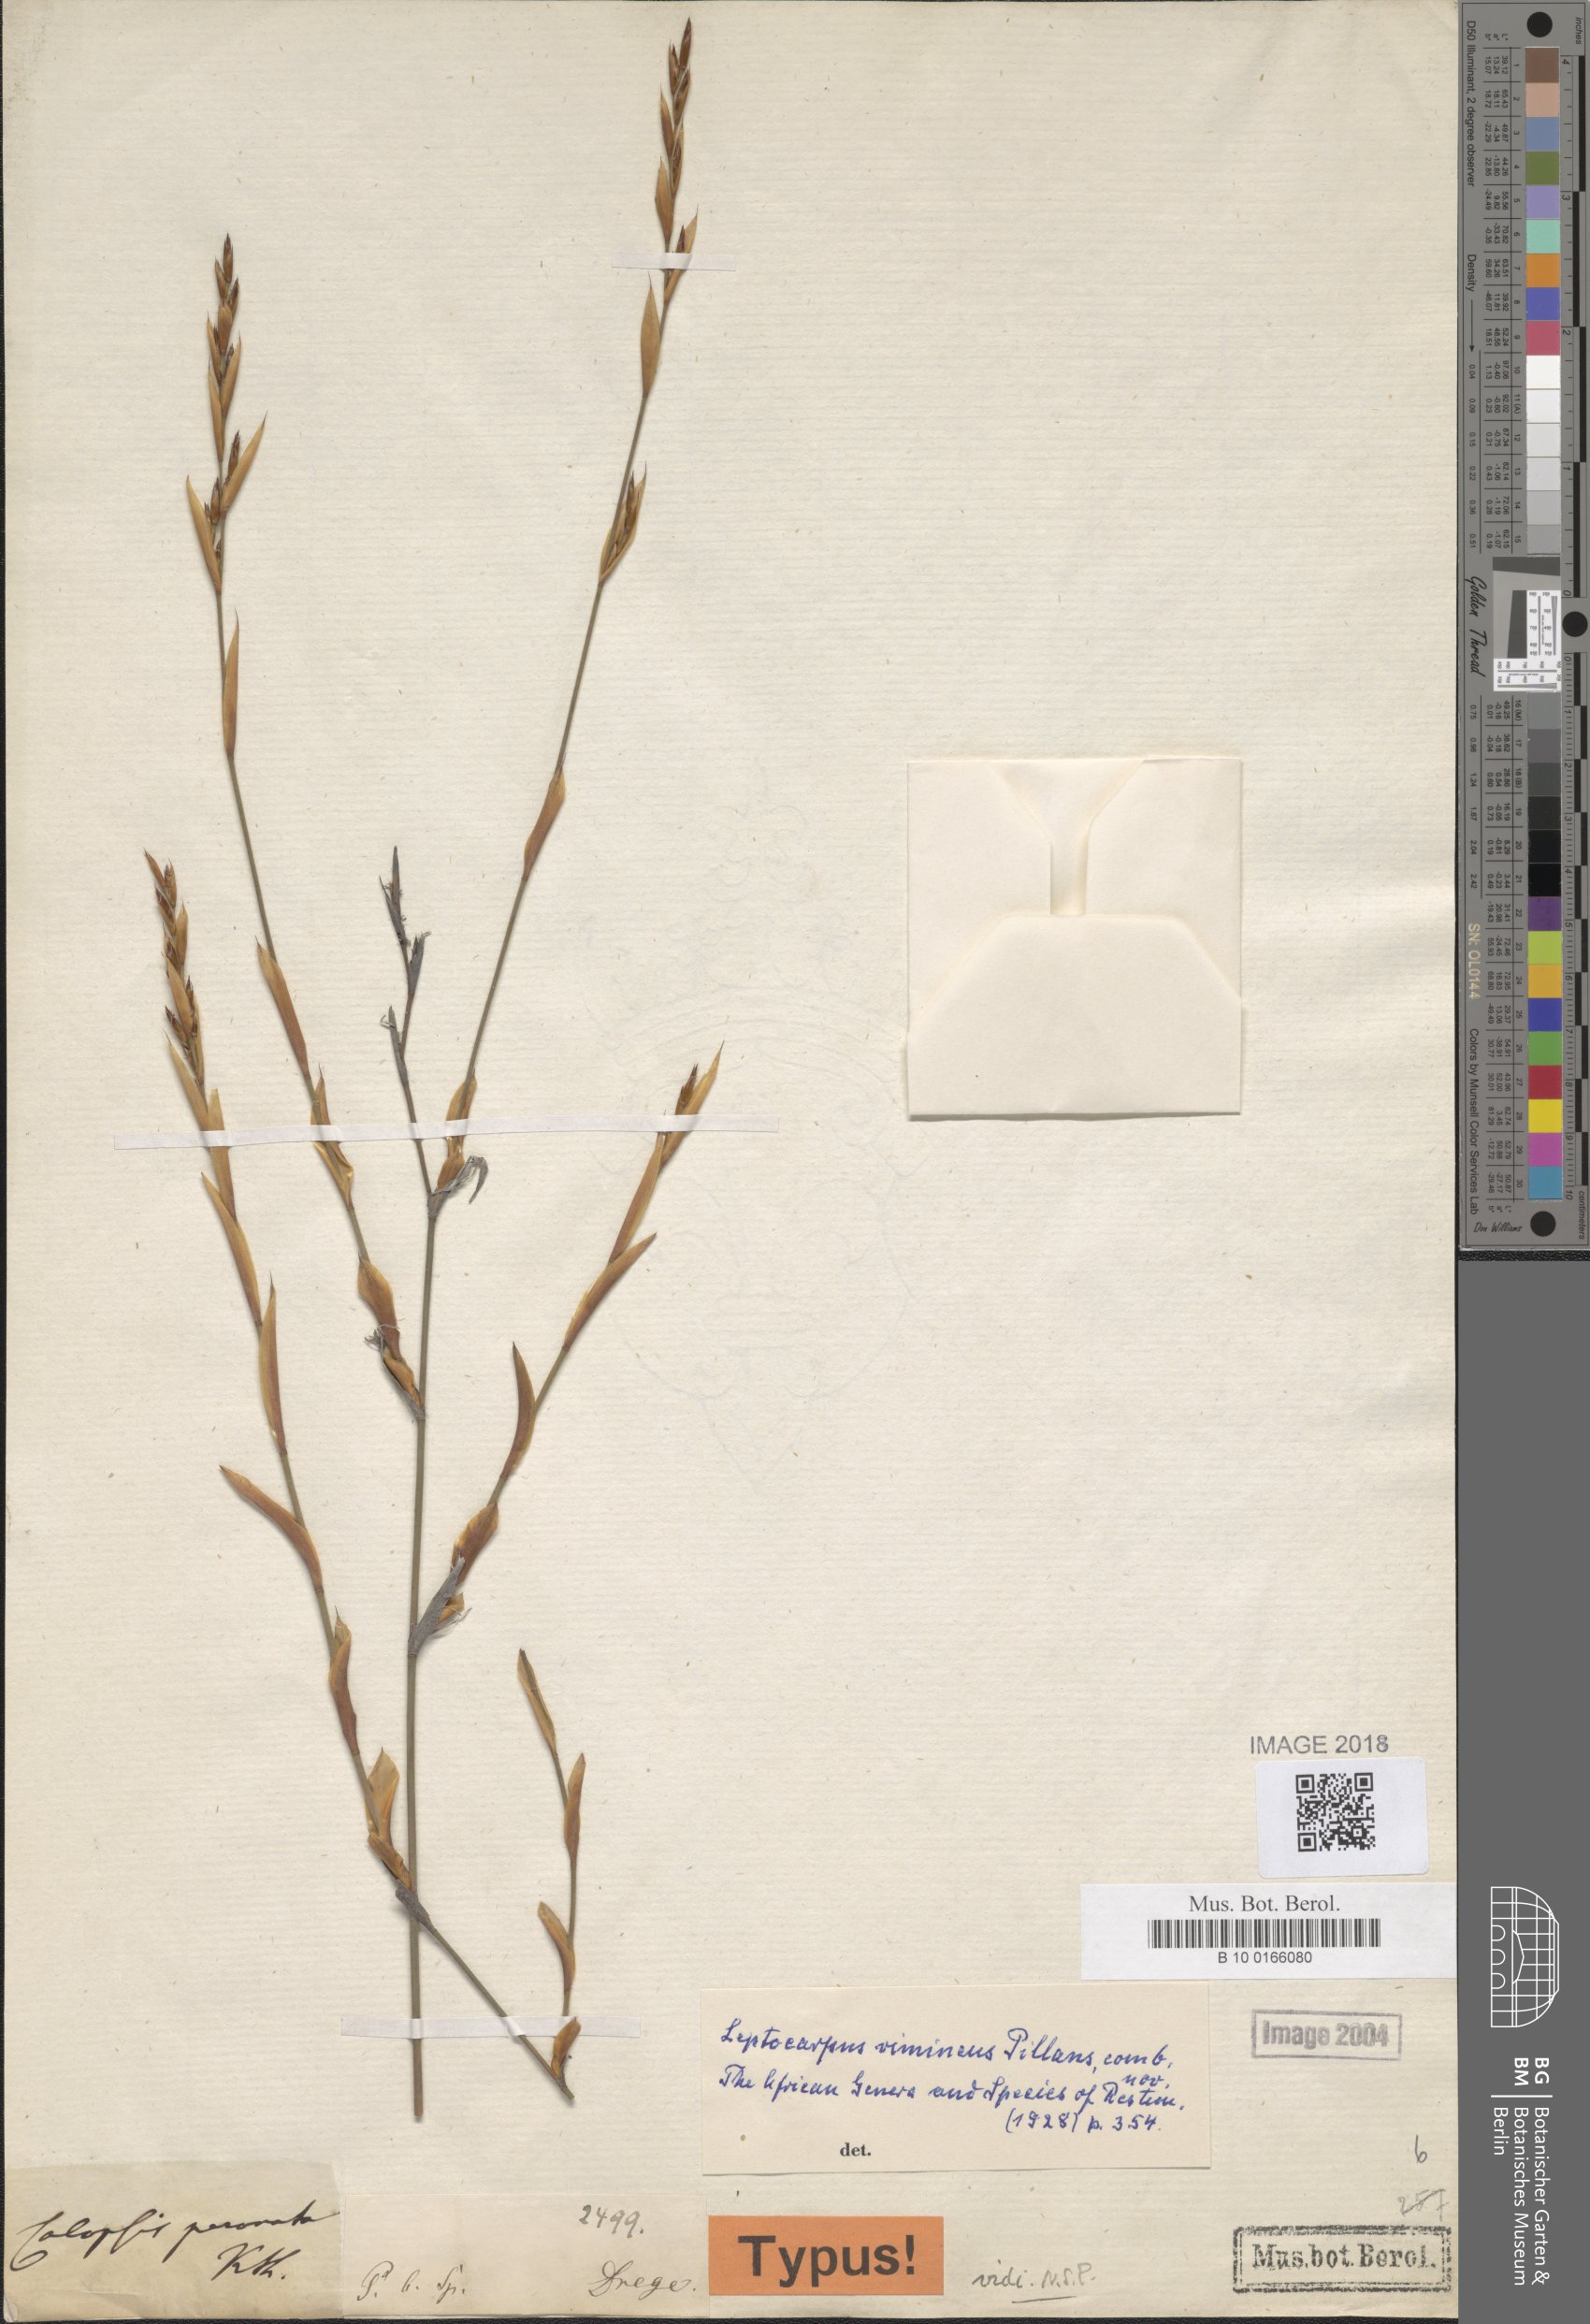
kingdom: Plantae
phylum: Tracheophyta
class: Liliopsida
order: Poales
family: Restionaceae
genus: Restio
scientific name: Restio vimineus
